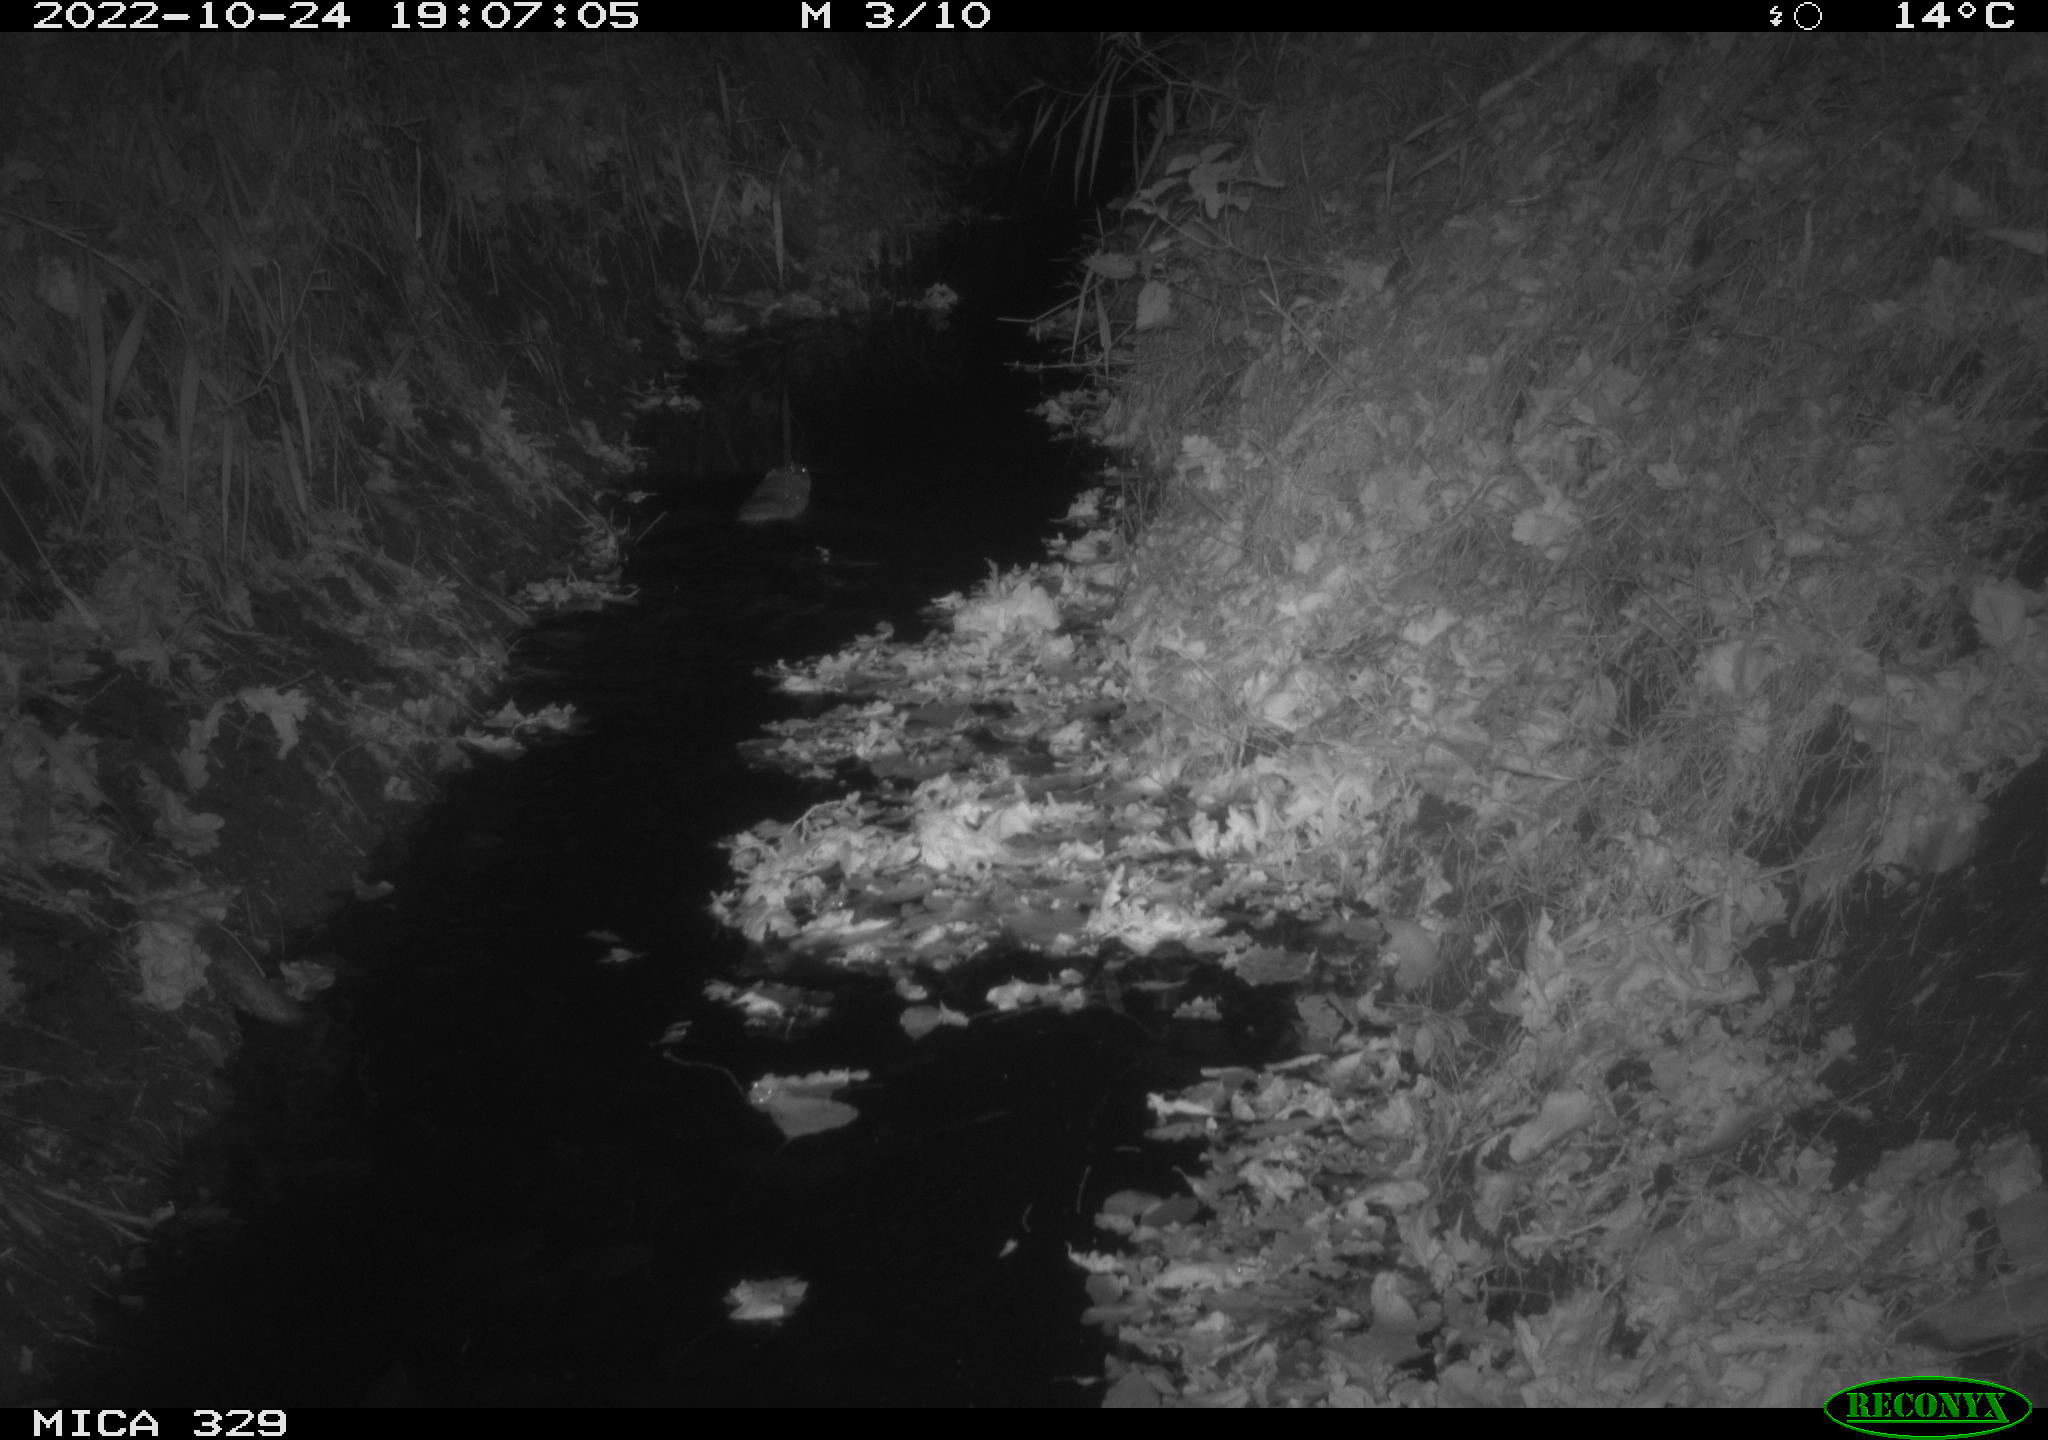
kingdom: Animalia
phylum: Chordata
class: Mammalia
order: Rodentia
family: Cricetidae
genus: Ondatra
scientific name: Ondatra zibethicus
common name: Muskrat
